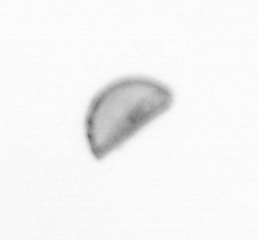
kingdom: Chromista
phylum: Ochrophyta
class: Bacillariophyceae
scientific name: Bacillariophyceae
